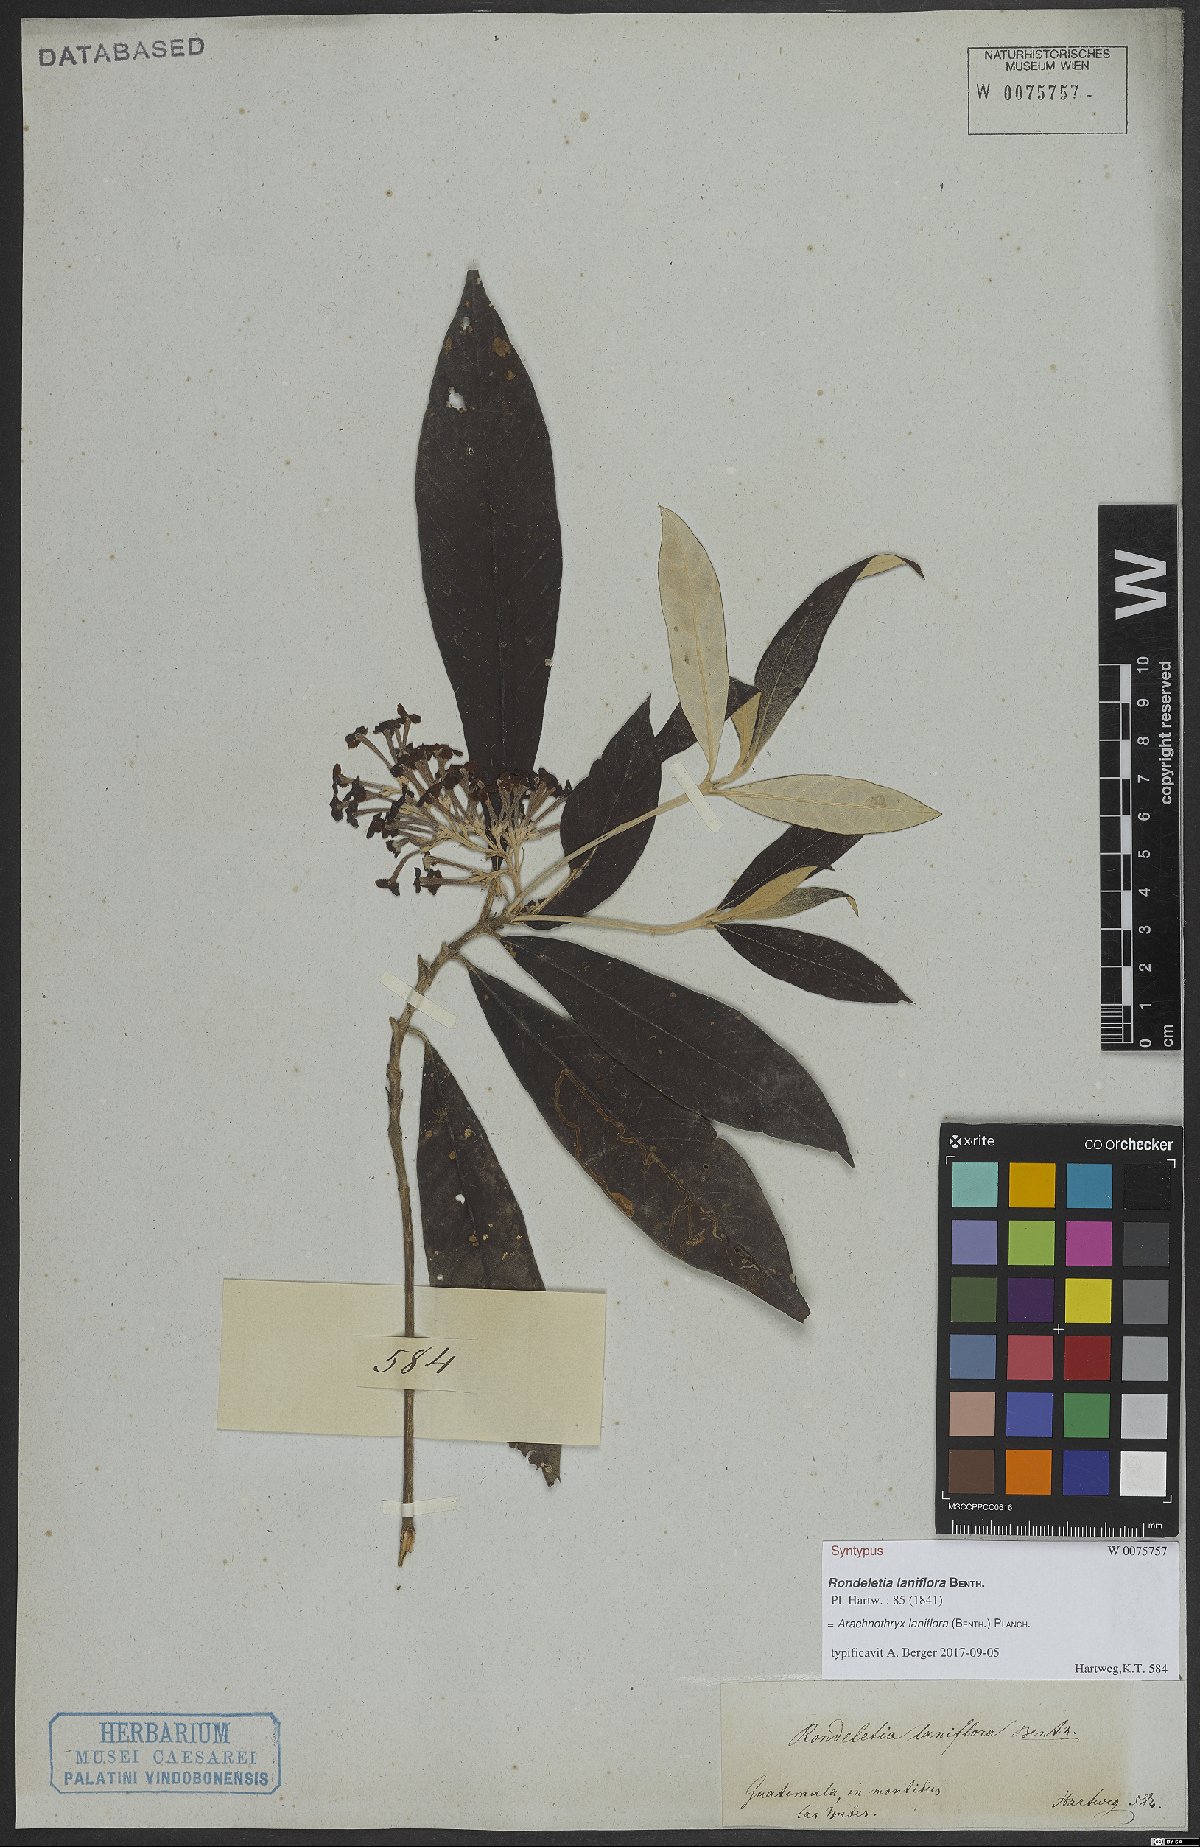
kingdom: Plantae
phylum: Tracheophyta
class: Magnoliopsida
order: Gentianales
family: Rubiaceae
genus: Arachnothryx
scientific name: Arachnothryx laniflora
